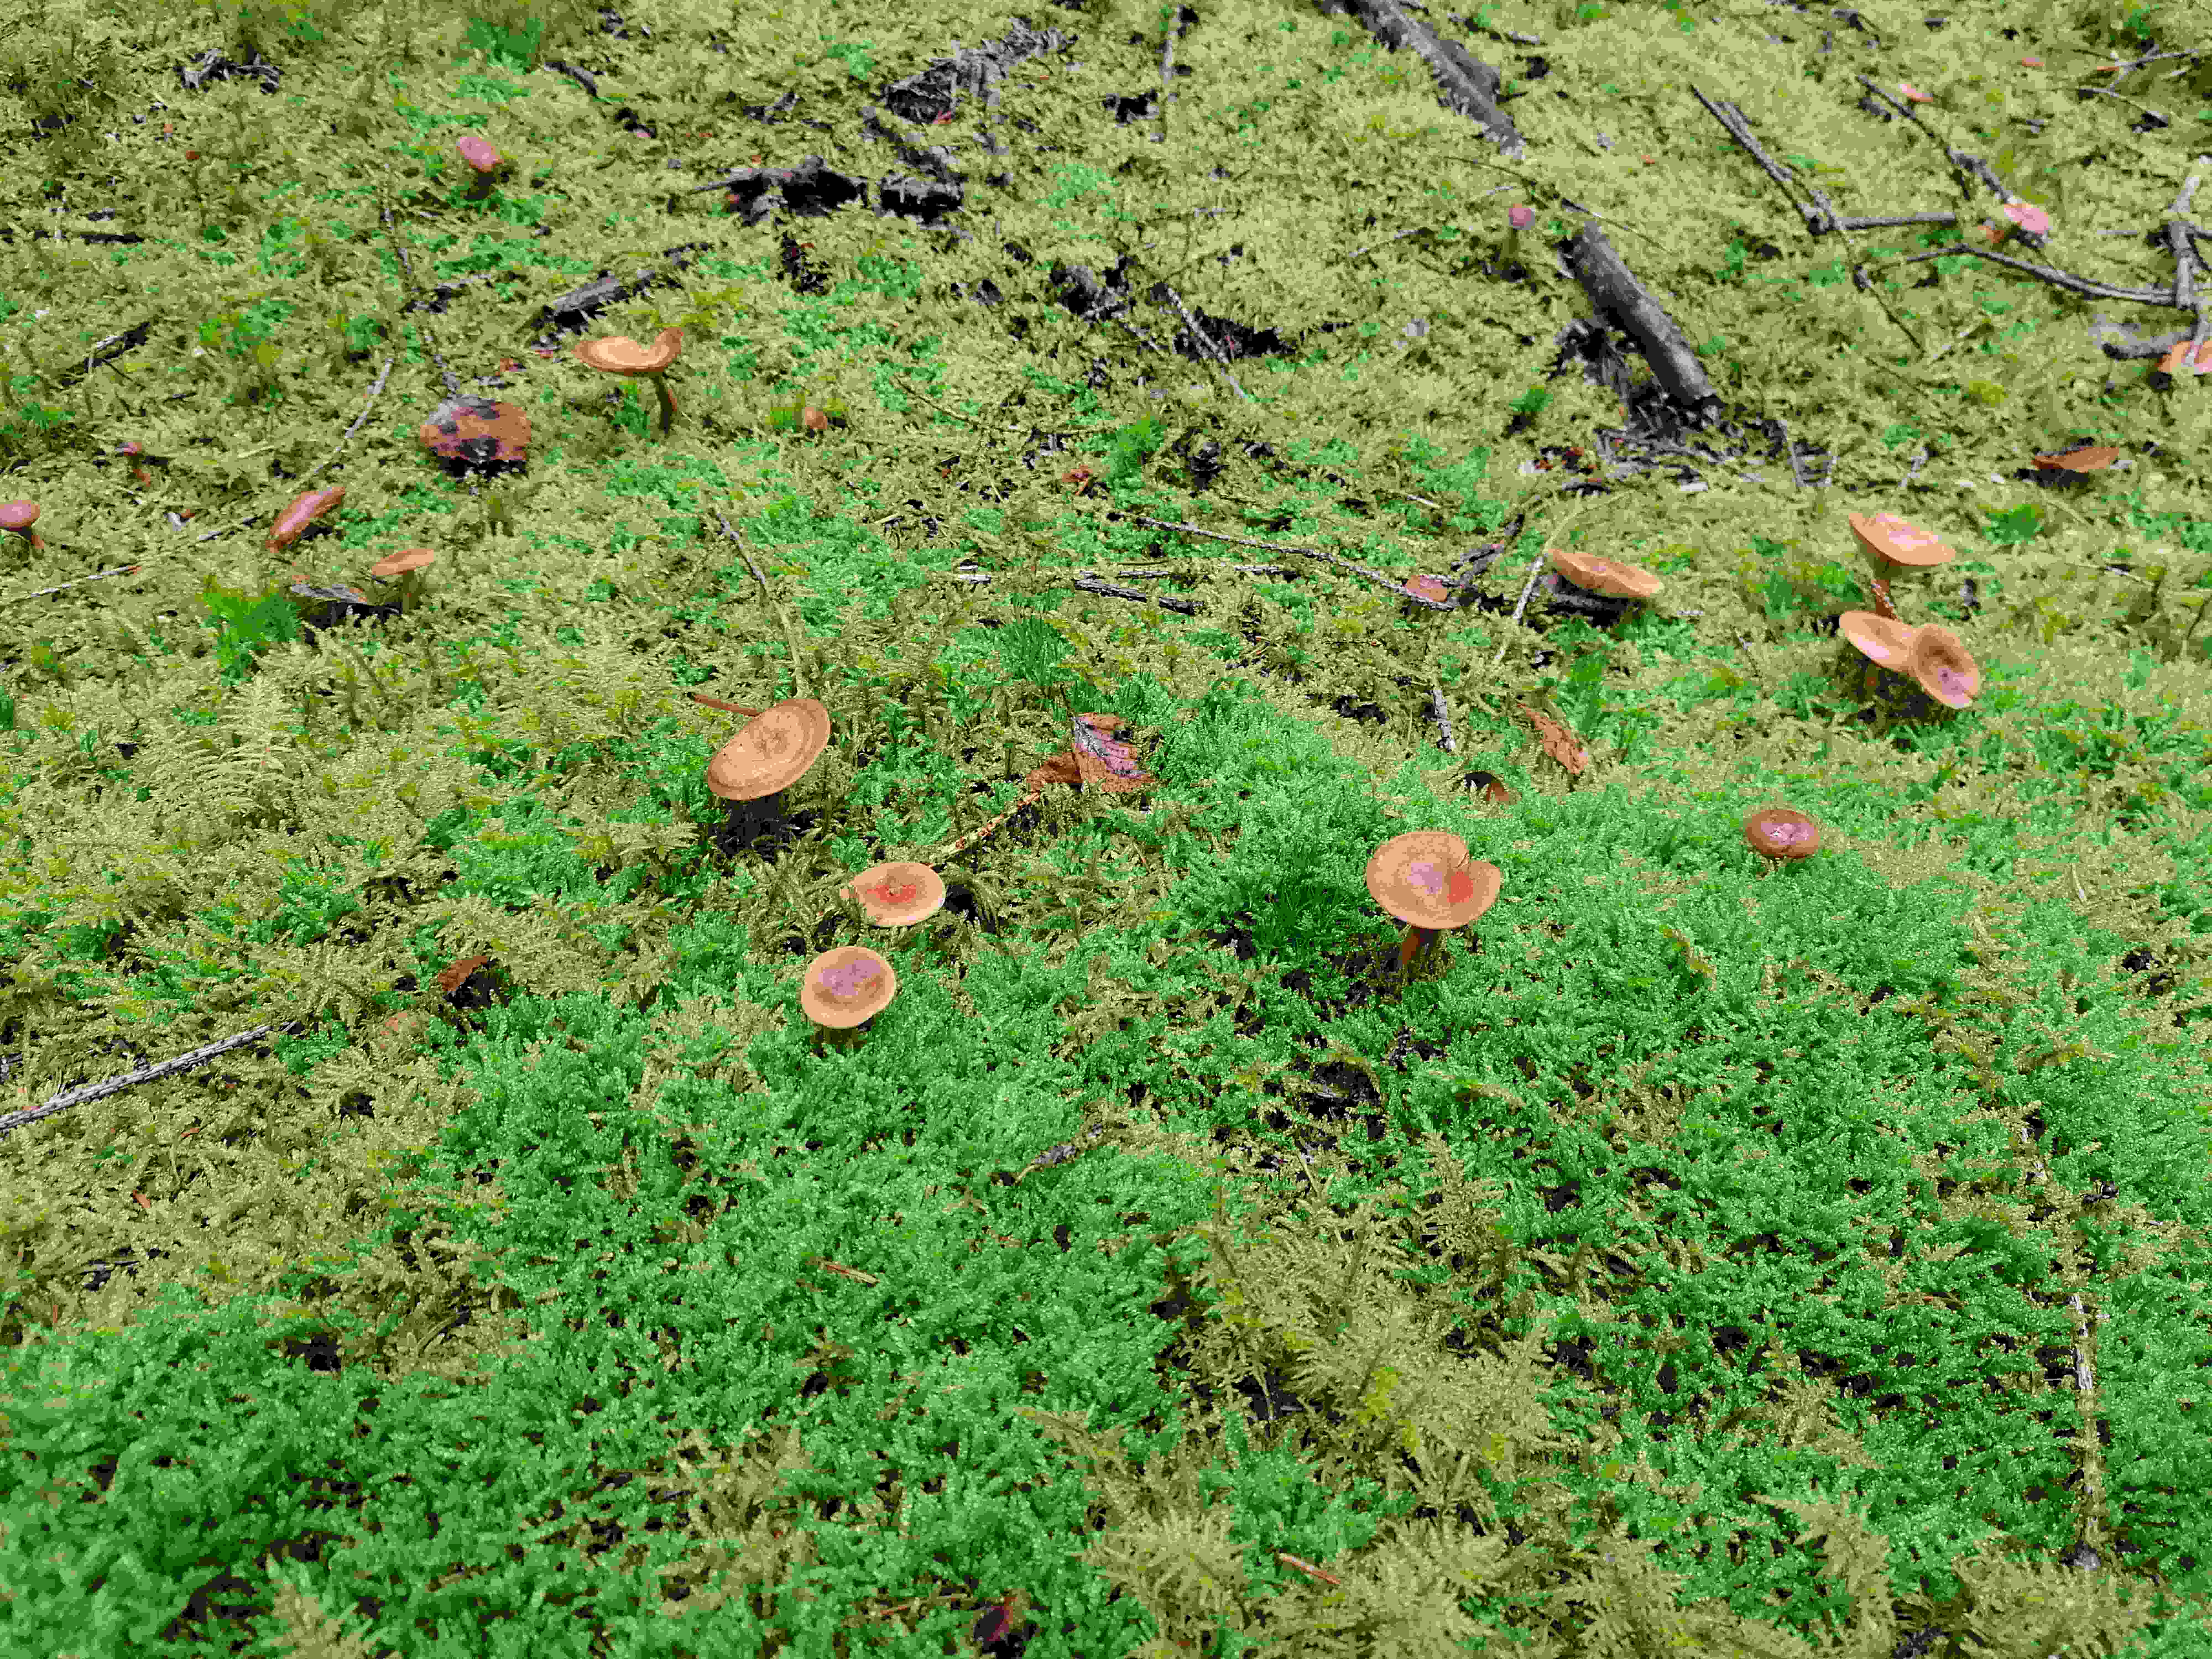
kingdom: Fungi
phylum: Basidiomycota
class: Agaricomycetes
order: Agaricales
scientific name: Agaricales
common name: champignonordenen
